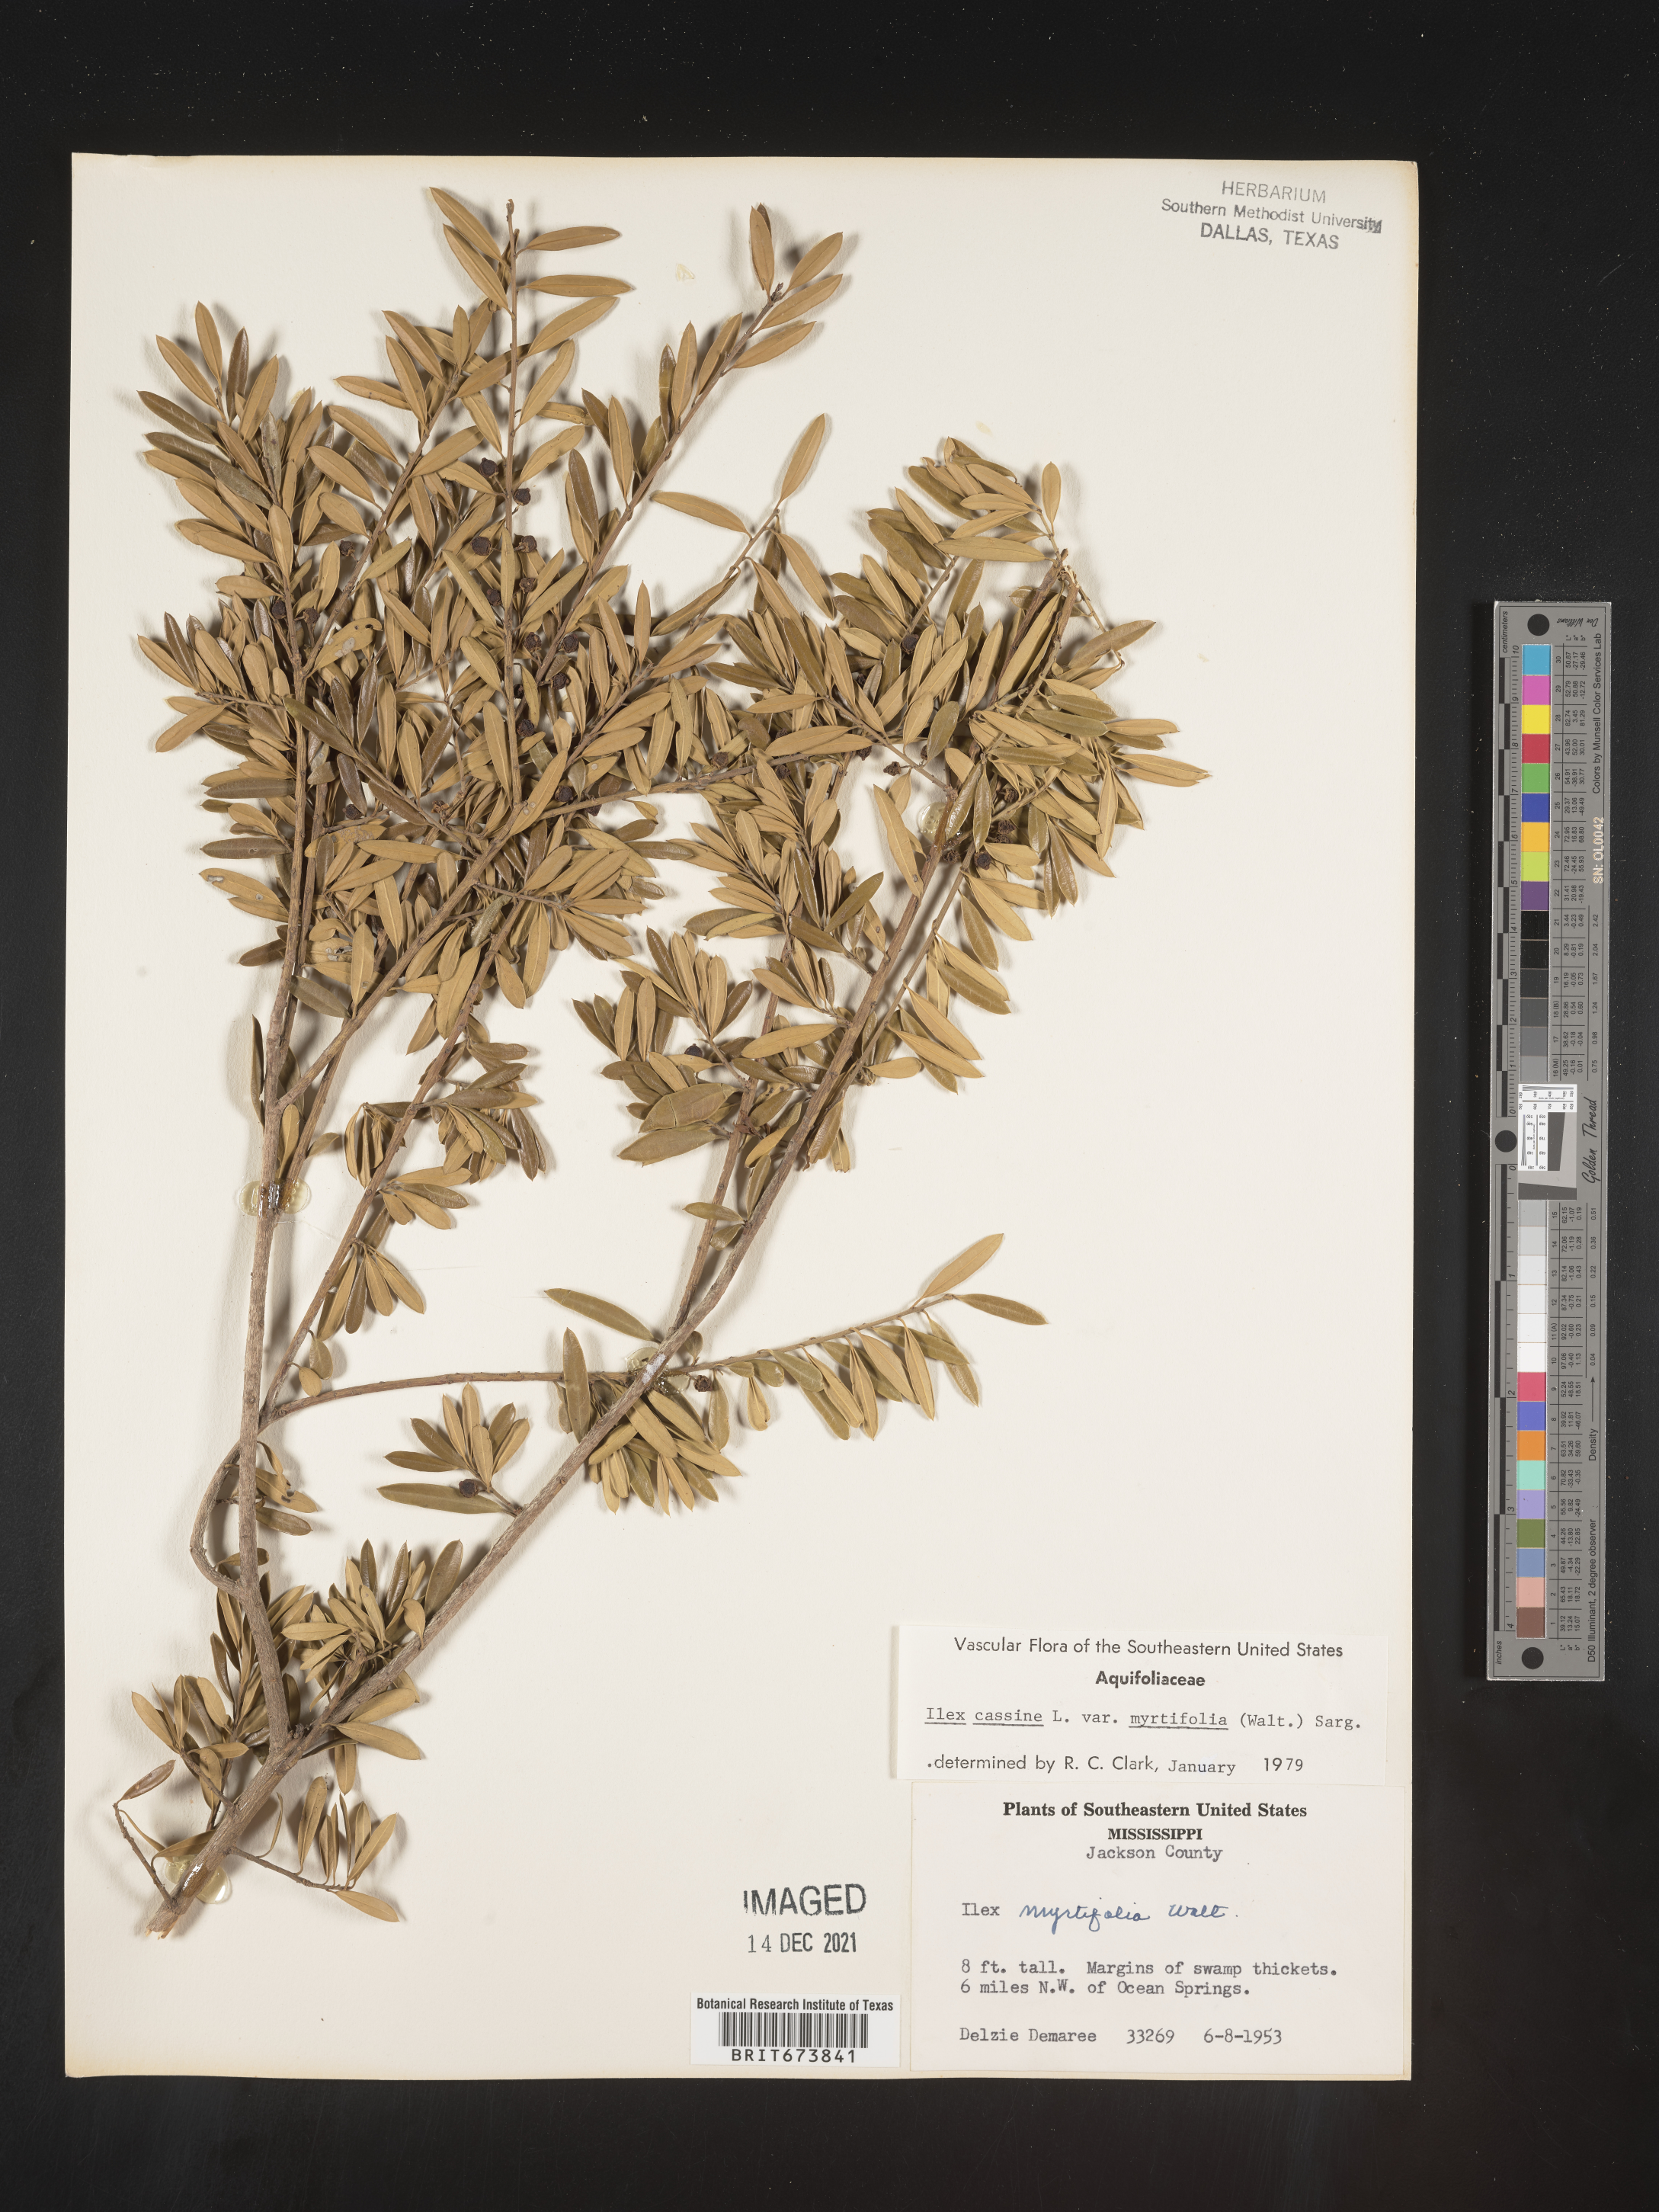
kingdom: Plantae
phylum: Tracheophyta
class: Magnoliopsida
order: Aquifoliales
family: Aquifoliaceae
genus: Ilex
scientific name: Ilex myrtifolia
